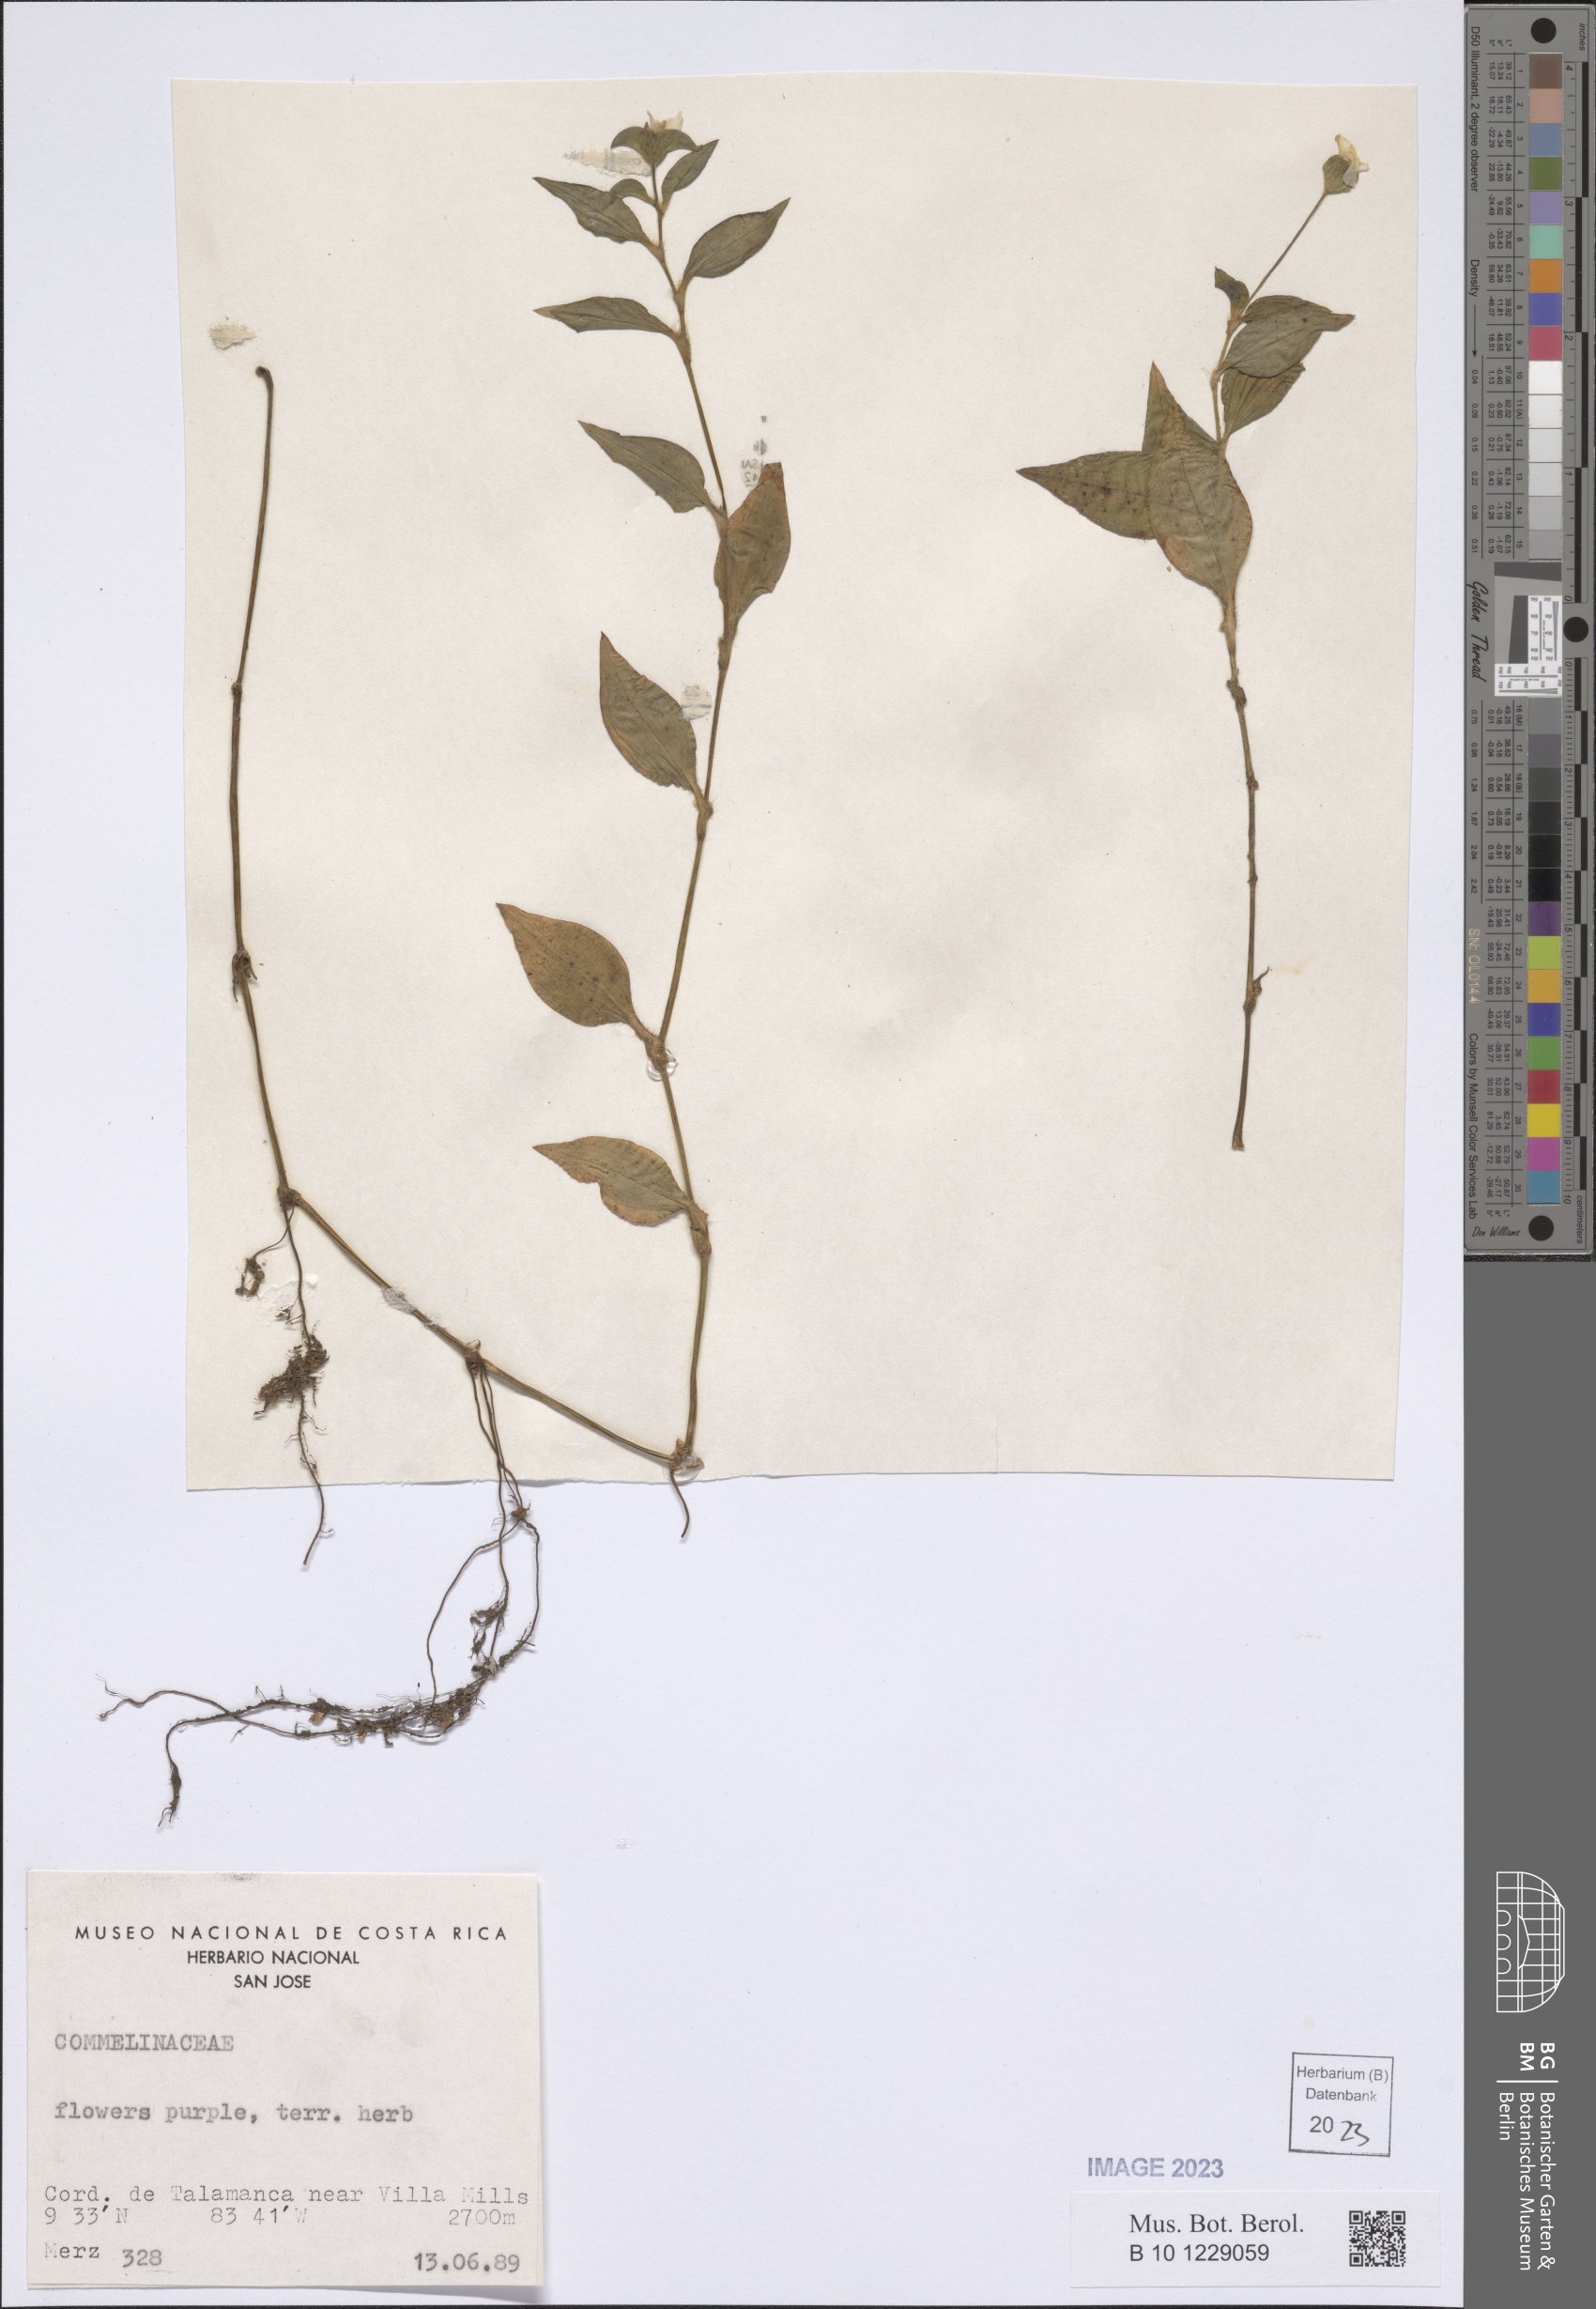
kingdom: Plantae
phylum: Tracheophyta
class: Liliopsida
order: Commelinales
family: Commelinaceae
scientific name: Commelinaceae
